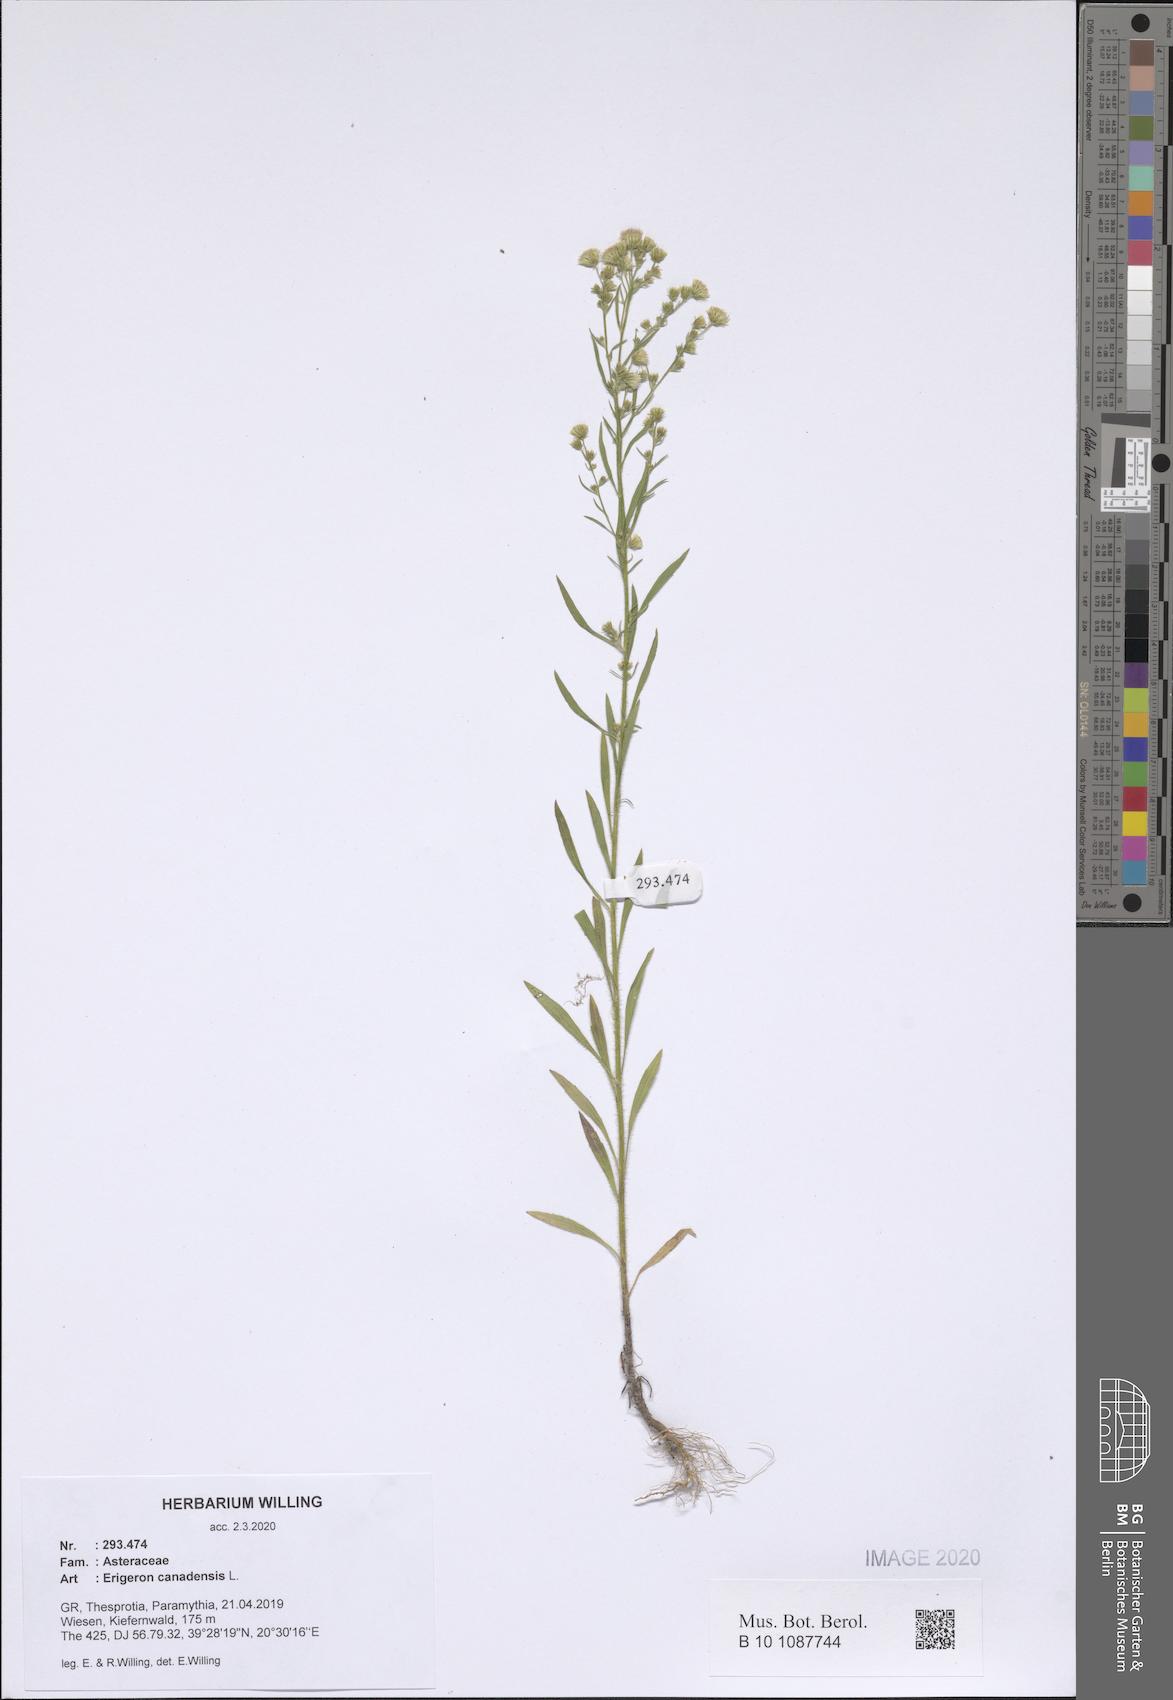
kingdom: Plantae
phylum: Tracheophyta
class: Magnoliopsida
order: Asterales
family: Asteraceae
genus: Erigeron
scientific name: Erigeron canadensis
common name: Canadian fleabane
